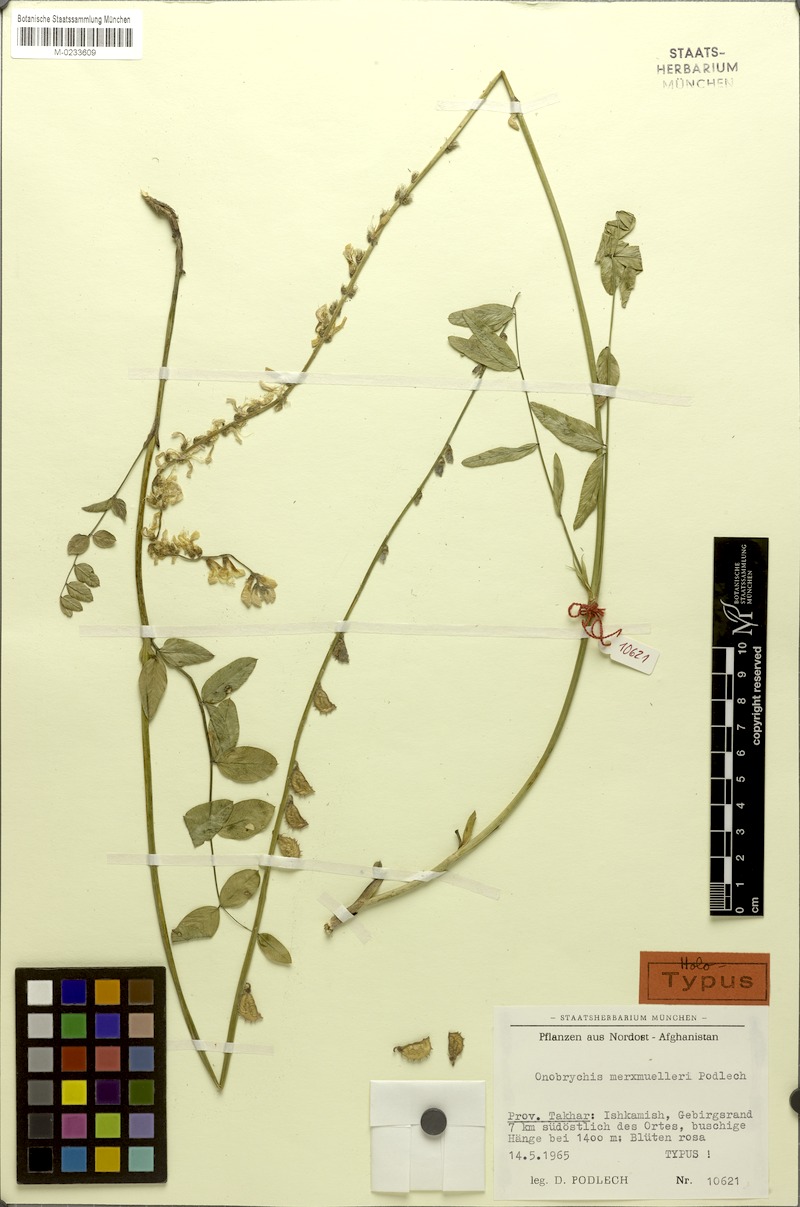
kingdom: Plantae
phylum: Tracheophyta
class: Magnoliopsida
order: Fabales
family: Fabaceae
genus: Onobrychis
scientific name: Onobrychis merxmuelleri
